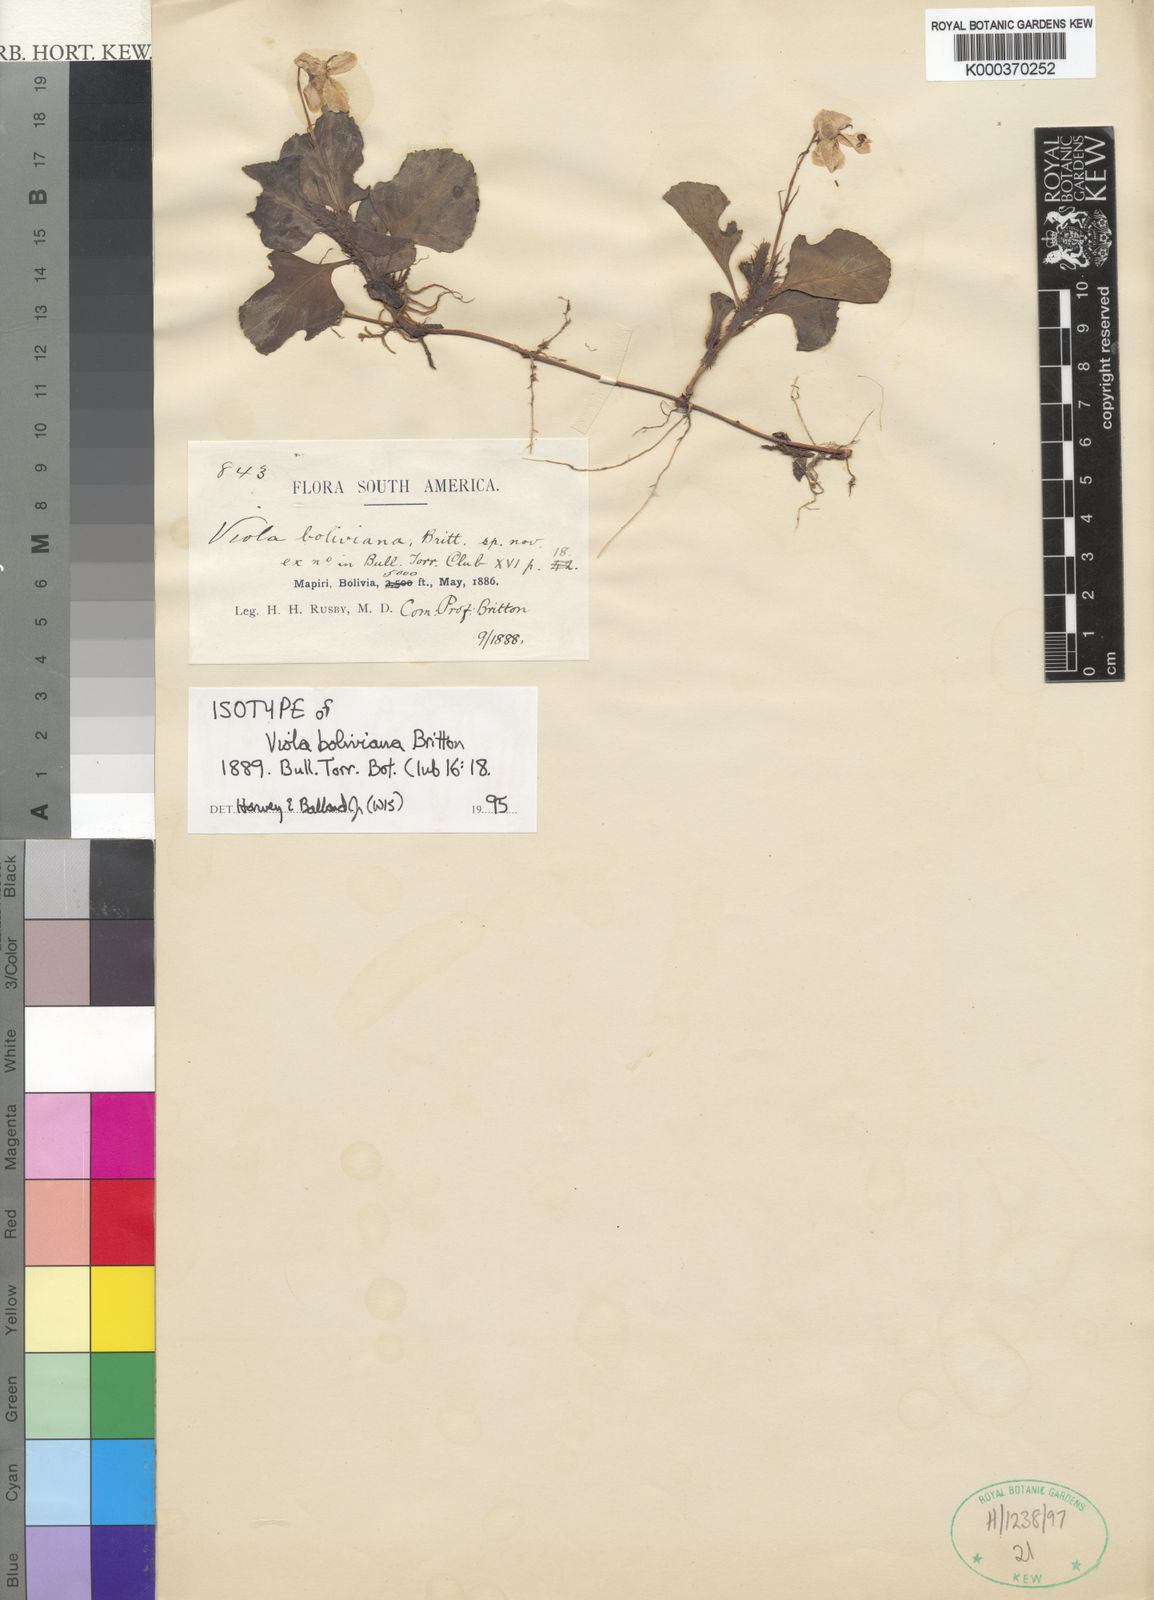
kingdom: Plantae
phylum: Tracheophyta
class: Magnoliopsida
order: Malpighiales
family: Violaceae
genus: Viola
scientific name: Viola boliviana
